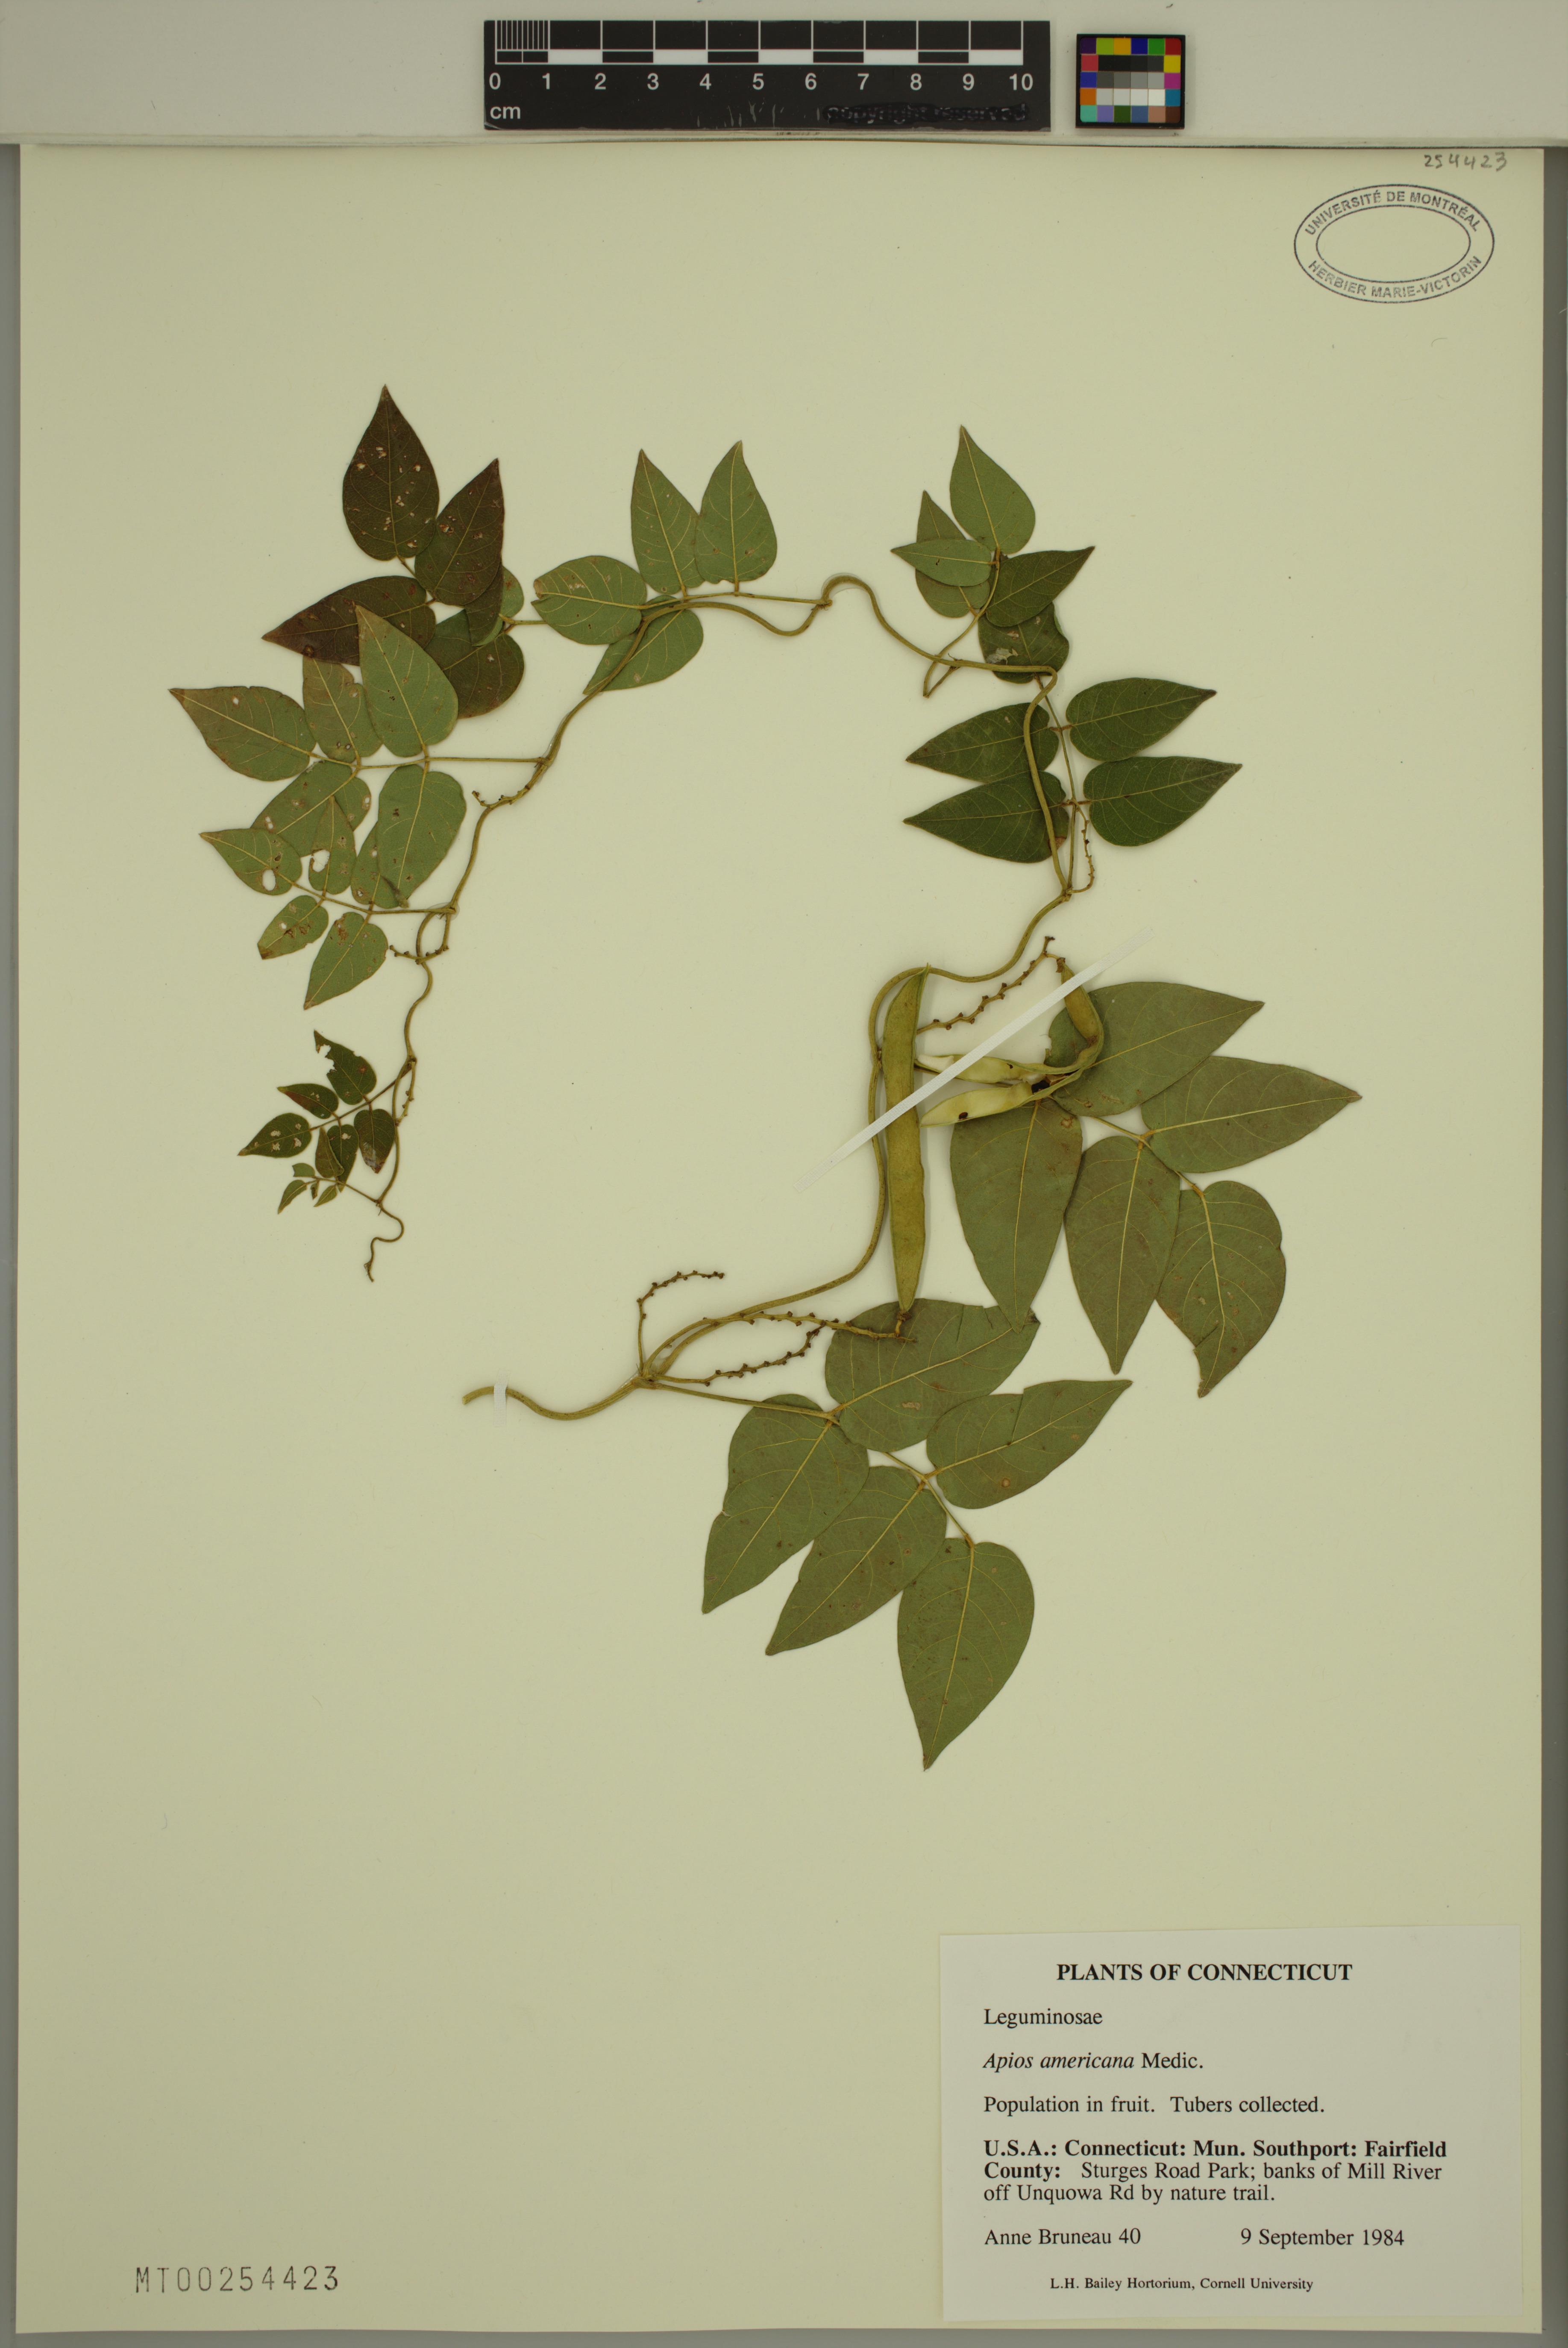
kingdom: Plantae
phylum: Tracheophyta
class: Magnoliopsida
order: Fabales
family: Fabaceae
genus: Apios
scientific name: Apios americana
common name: American potato-bean
